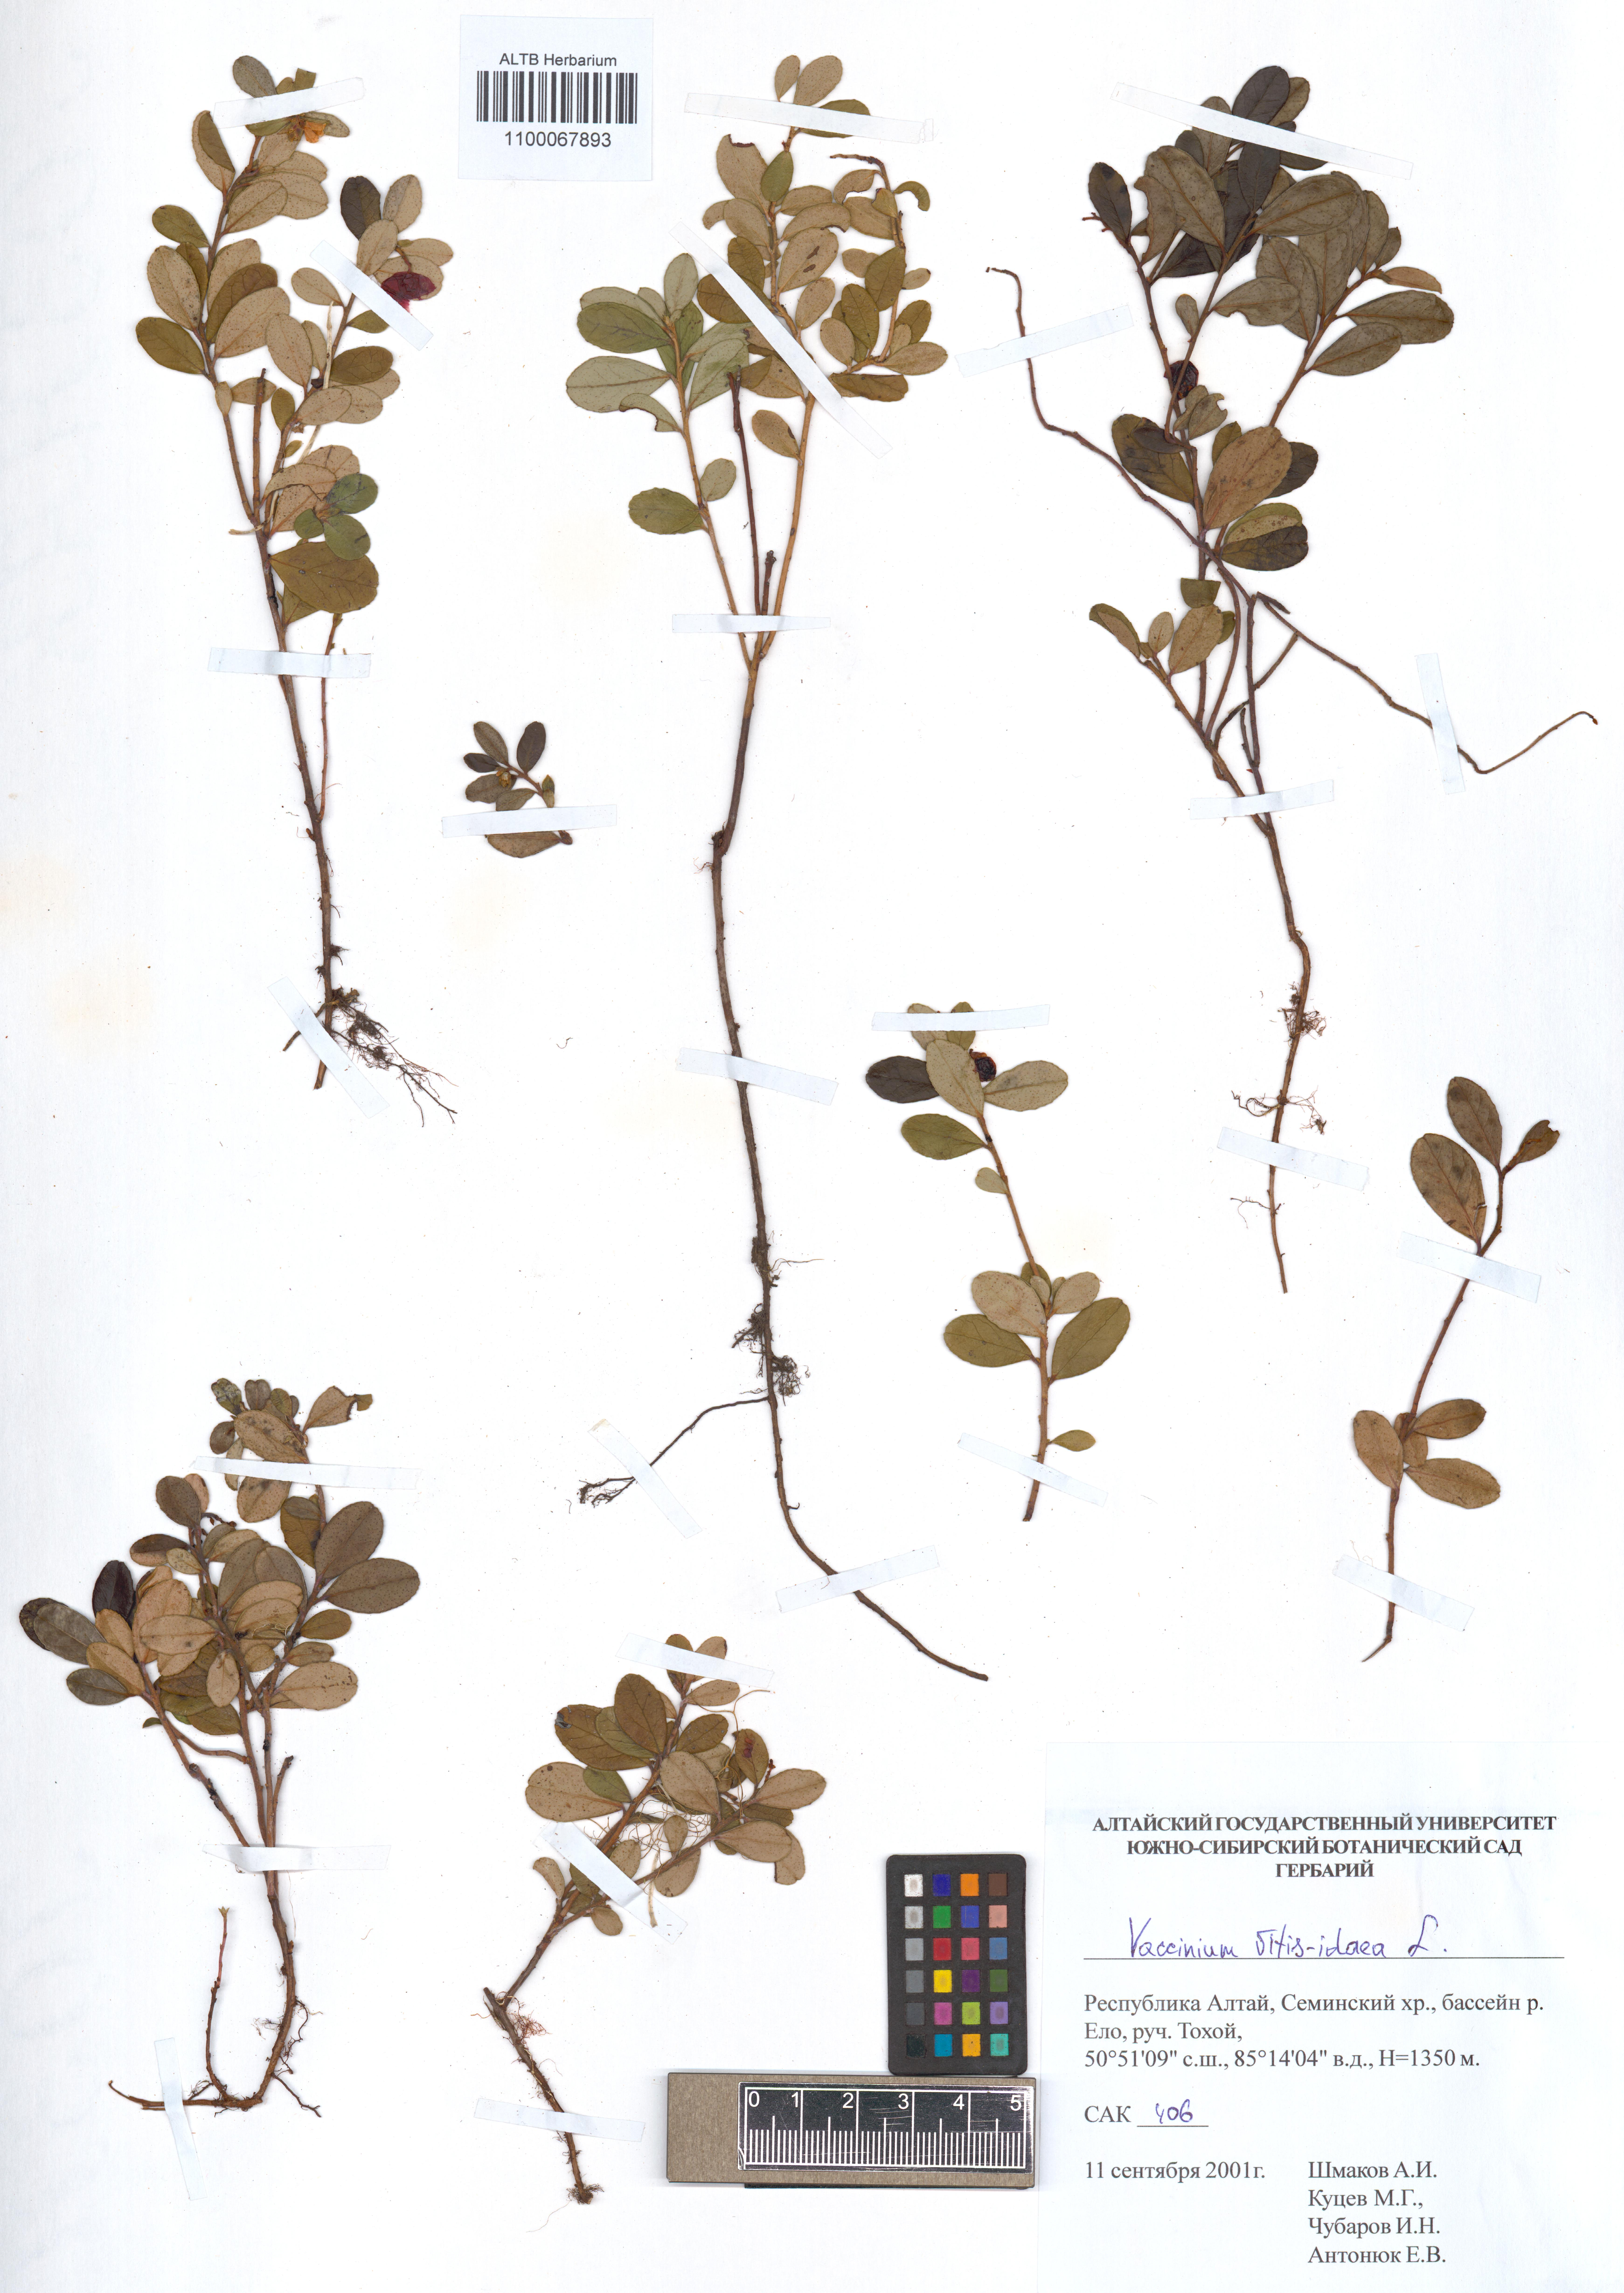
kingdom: Plantae
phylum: Tracheophyta
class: Magnoliopsida
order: Ericales
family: Ericaceae
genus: Vaccinium
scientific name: Vaccinium vitis-idaea
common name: Cowberry
